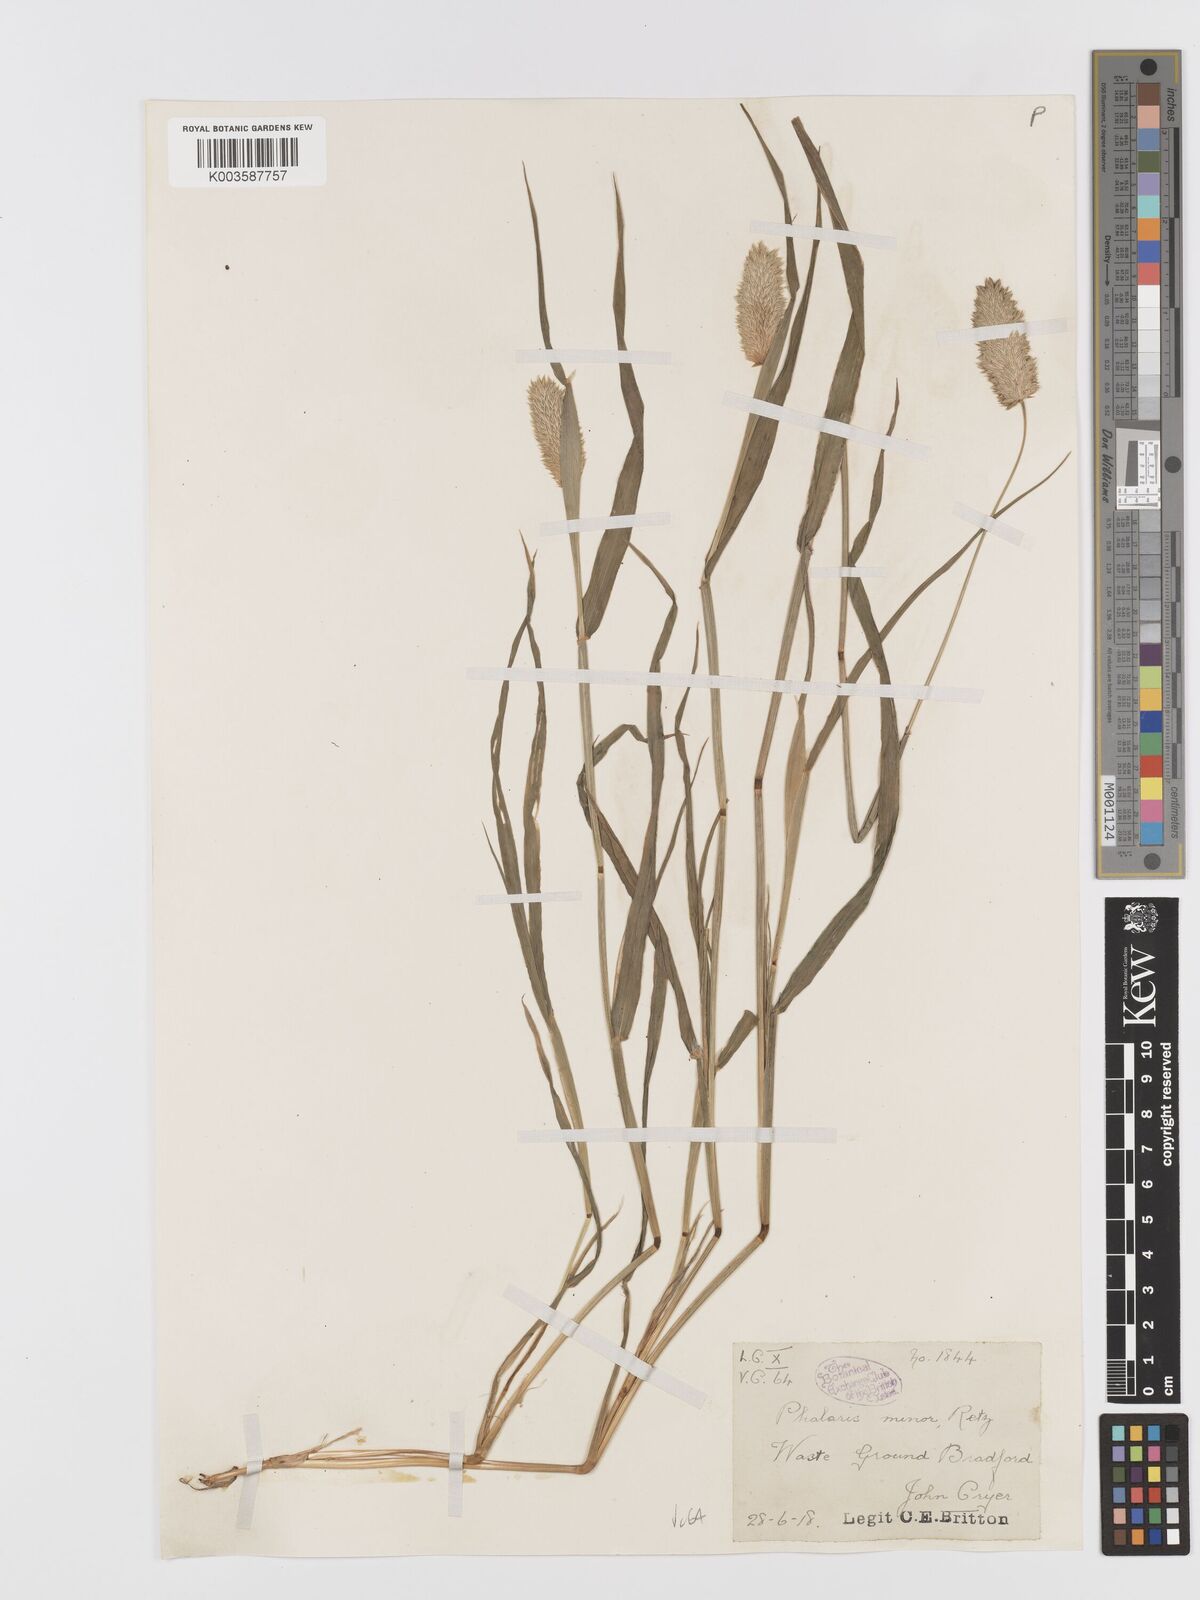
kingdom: Plantae
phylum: Tracheophyta
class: Liliopsida
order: Poales
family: Poaceae
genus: Phalaris
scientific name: Phalaris minor
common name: Littleseed canarygrass
